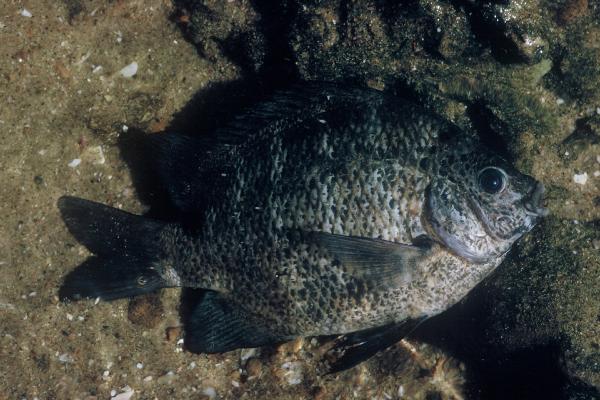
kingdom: Animalia
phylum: Chordata
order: Perciformes
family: Pomacentridae
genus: Abudefduf
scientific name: Abudefduf septemfasciatus
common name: Banded sergeant
